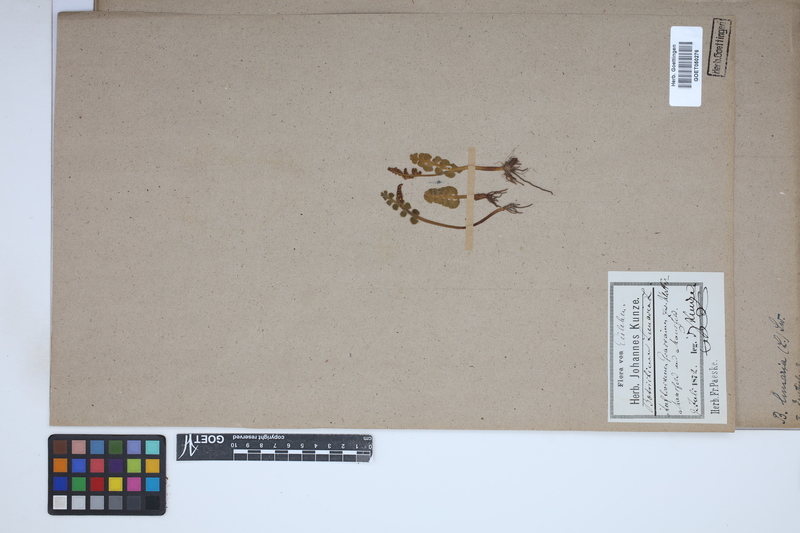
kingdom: Plantae
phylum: Tracheophyta
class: Polypodiopsida
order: Ophioglossales
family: Ophioglossaceae
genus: Botrychium
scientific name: Botrychium lunaria
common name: Moonwort
